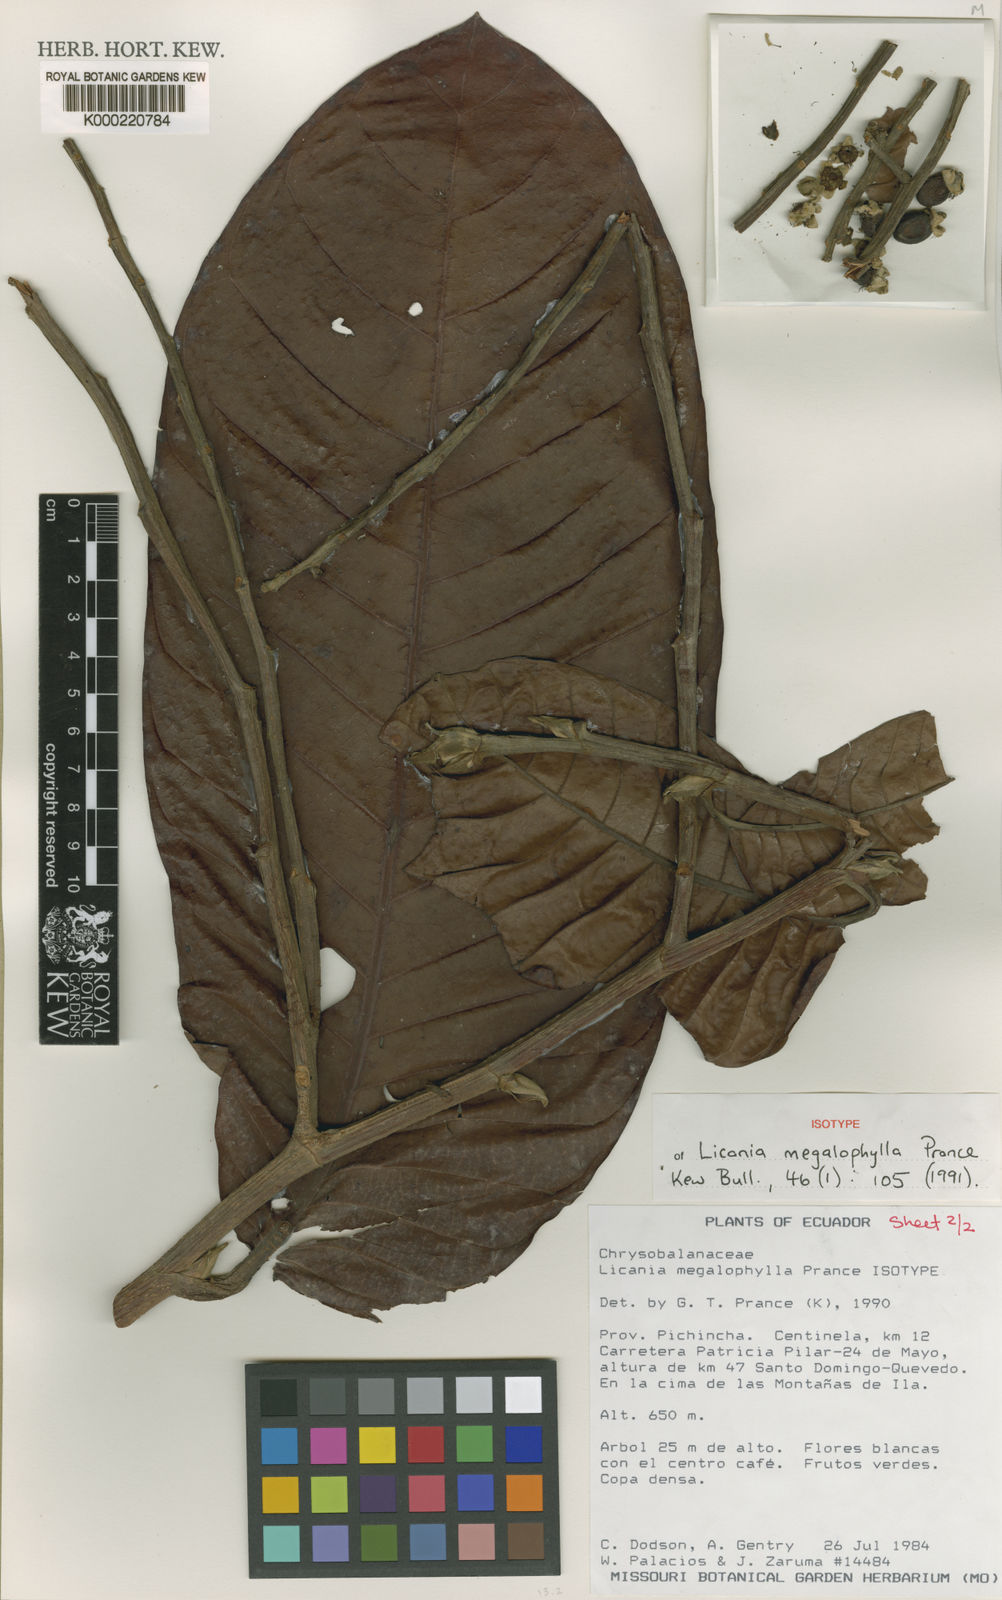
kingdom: Plantae
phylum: Tracheophyta
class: Magnoliopsida
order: Malpighiales
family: Chrysobalanaceae
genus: Moquilea
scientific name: Moquilea megalophylla
